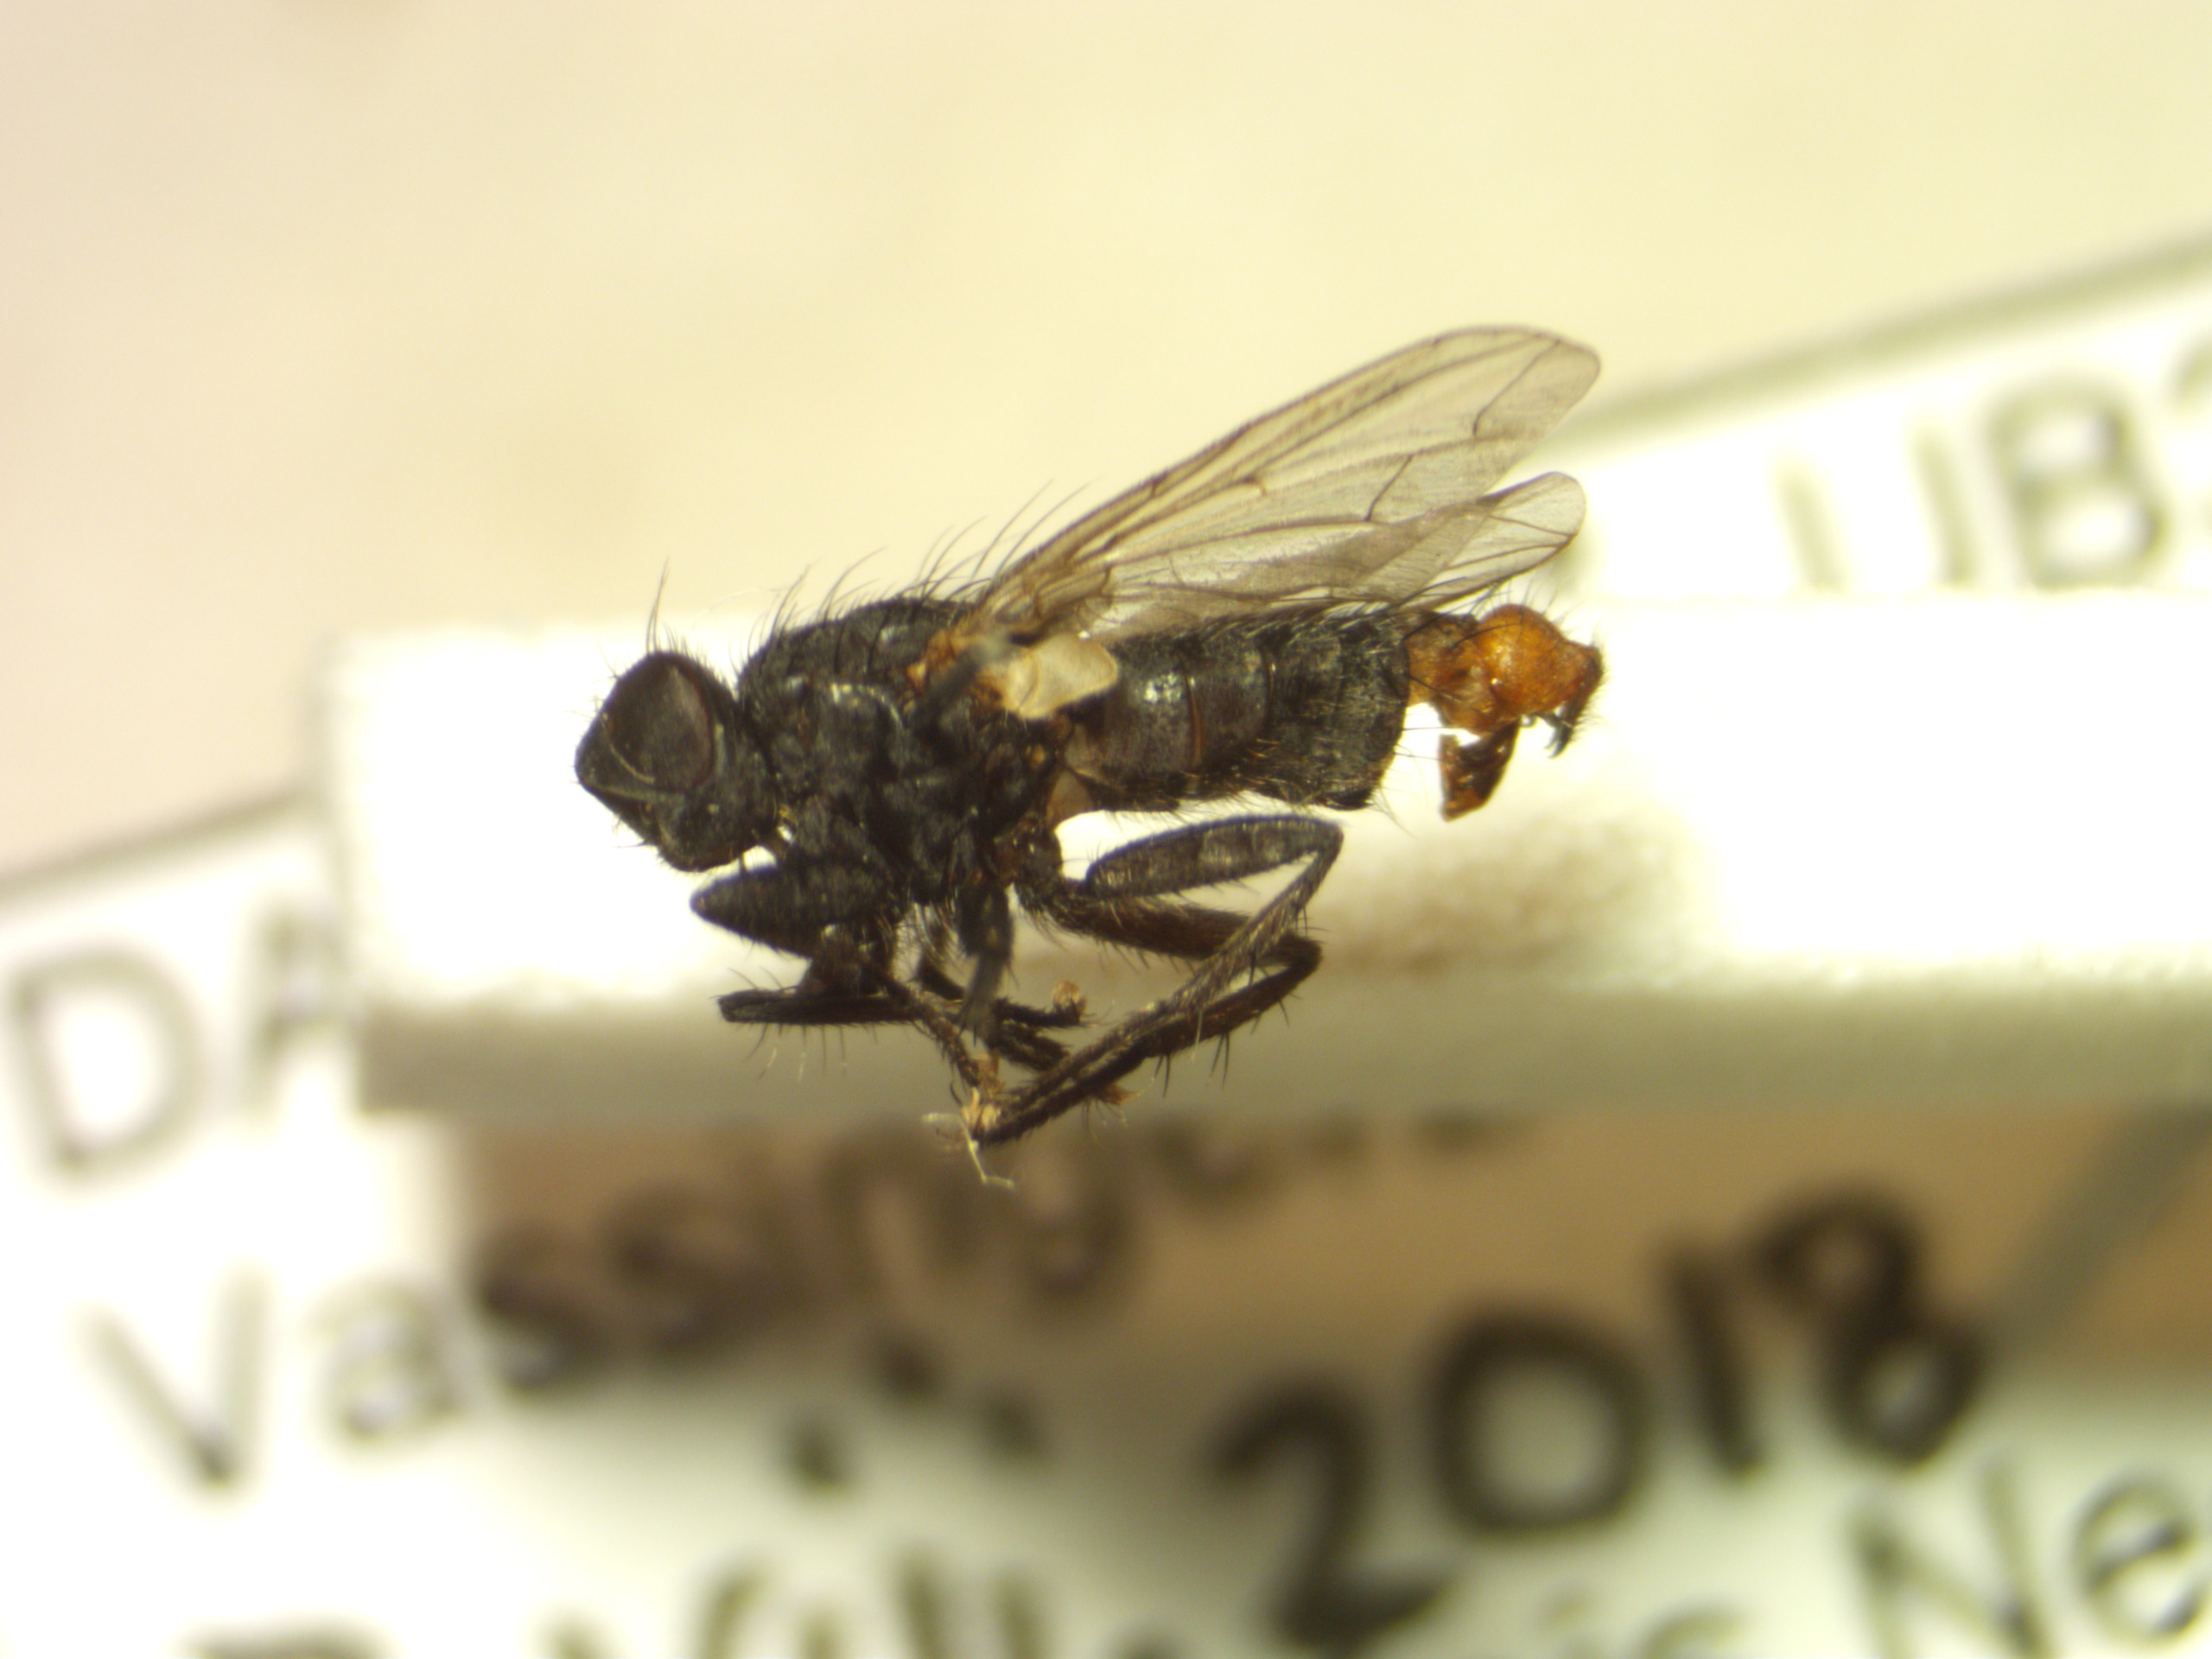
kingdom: Animalia
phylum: Arthropoda
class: Insecta
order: Diptera
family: Sarcophagidae
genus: Ravinia
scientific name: Ravinia pernix
